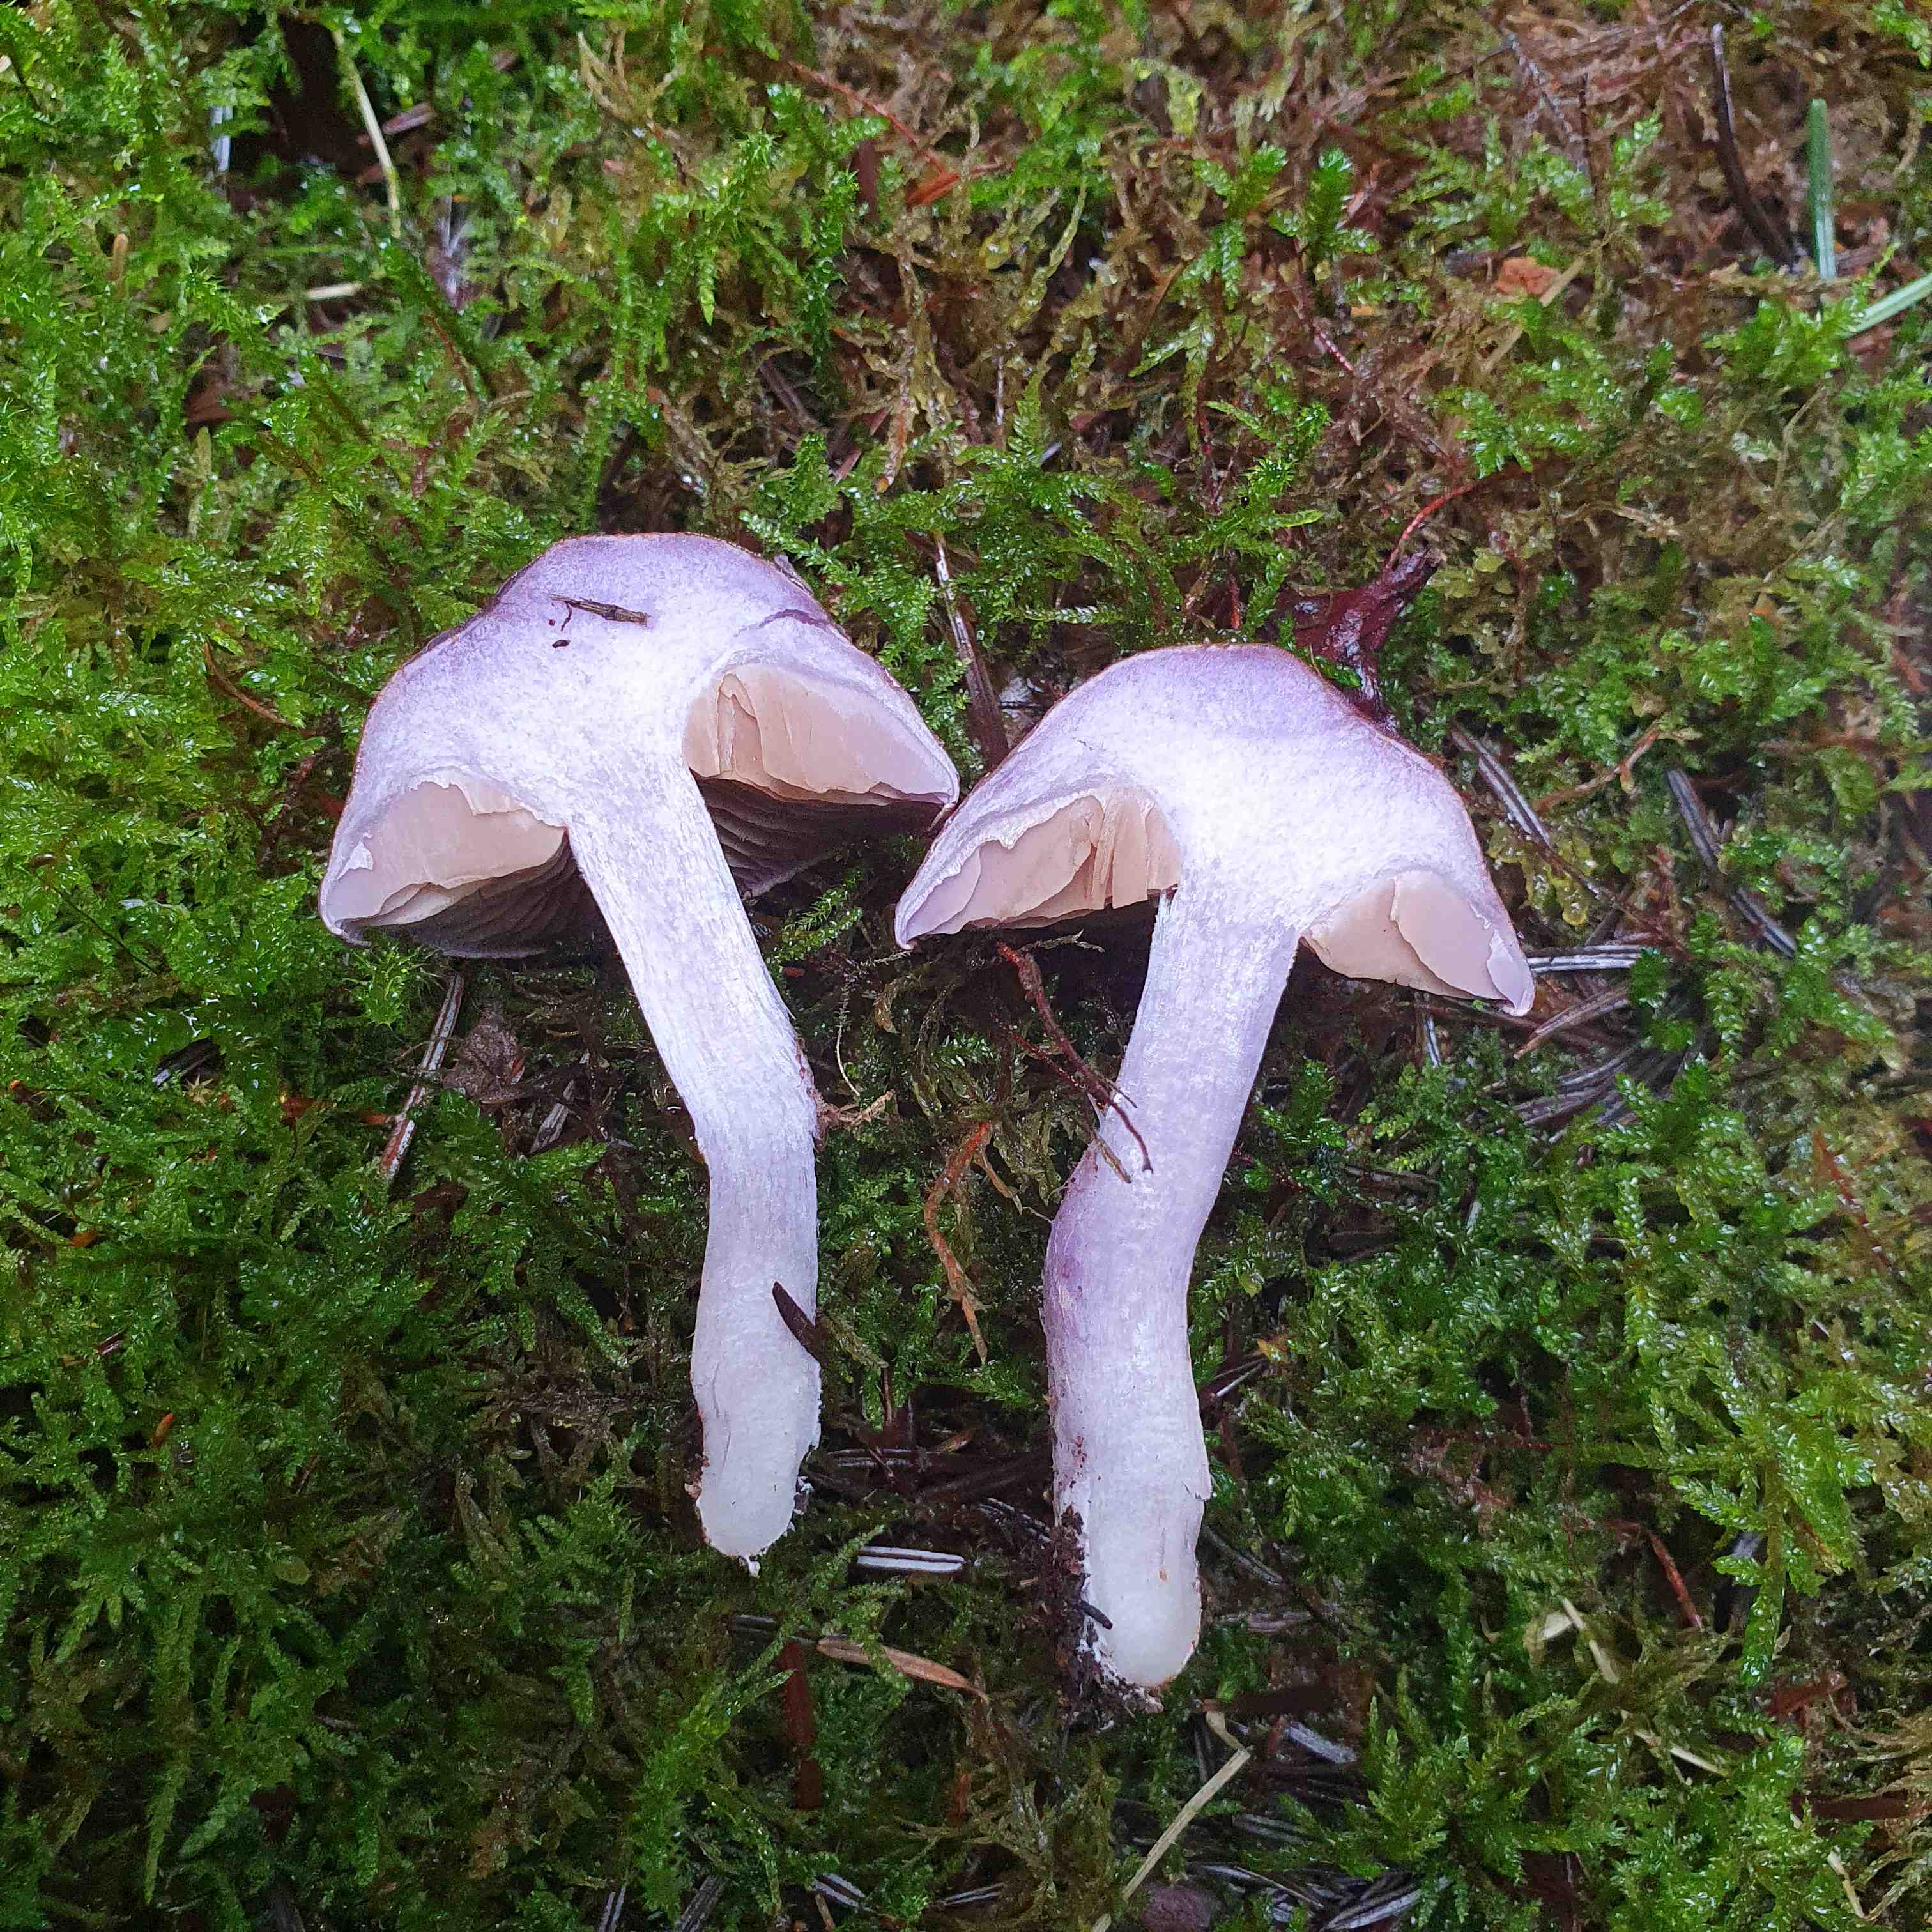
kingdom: Fungi
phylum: Basidiomycota
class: Agaricomycetes
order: Agaricales
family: Cortinariaceae
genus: Thaxterogaster
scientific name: Thaxterogaster purpurascens
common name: purpurbrun slørhat
